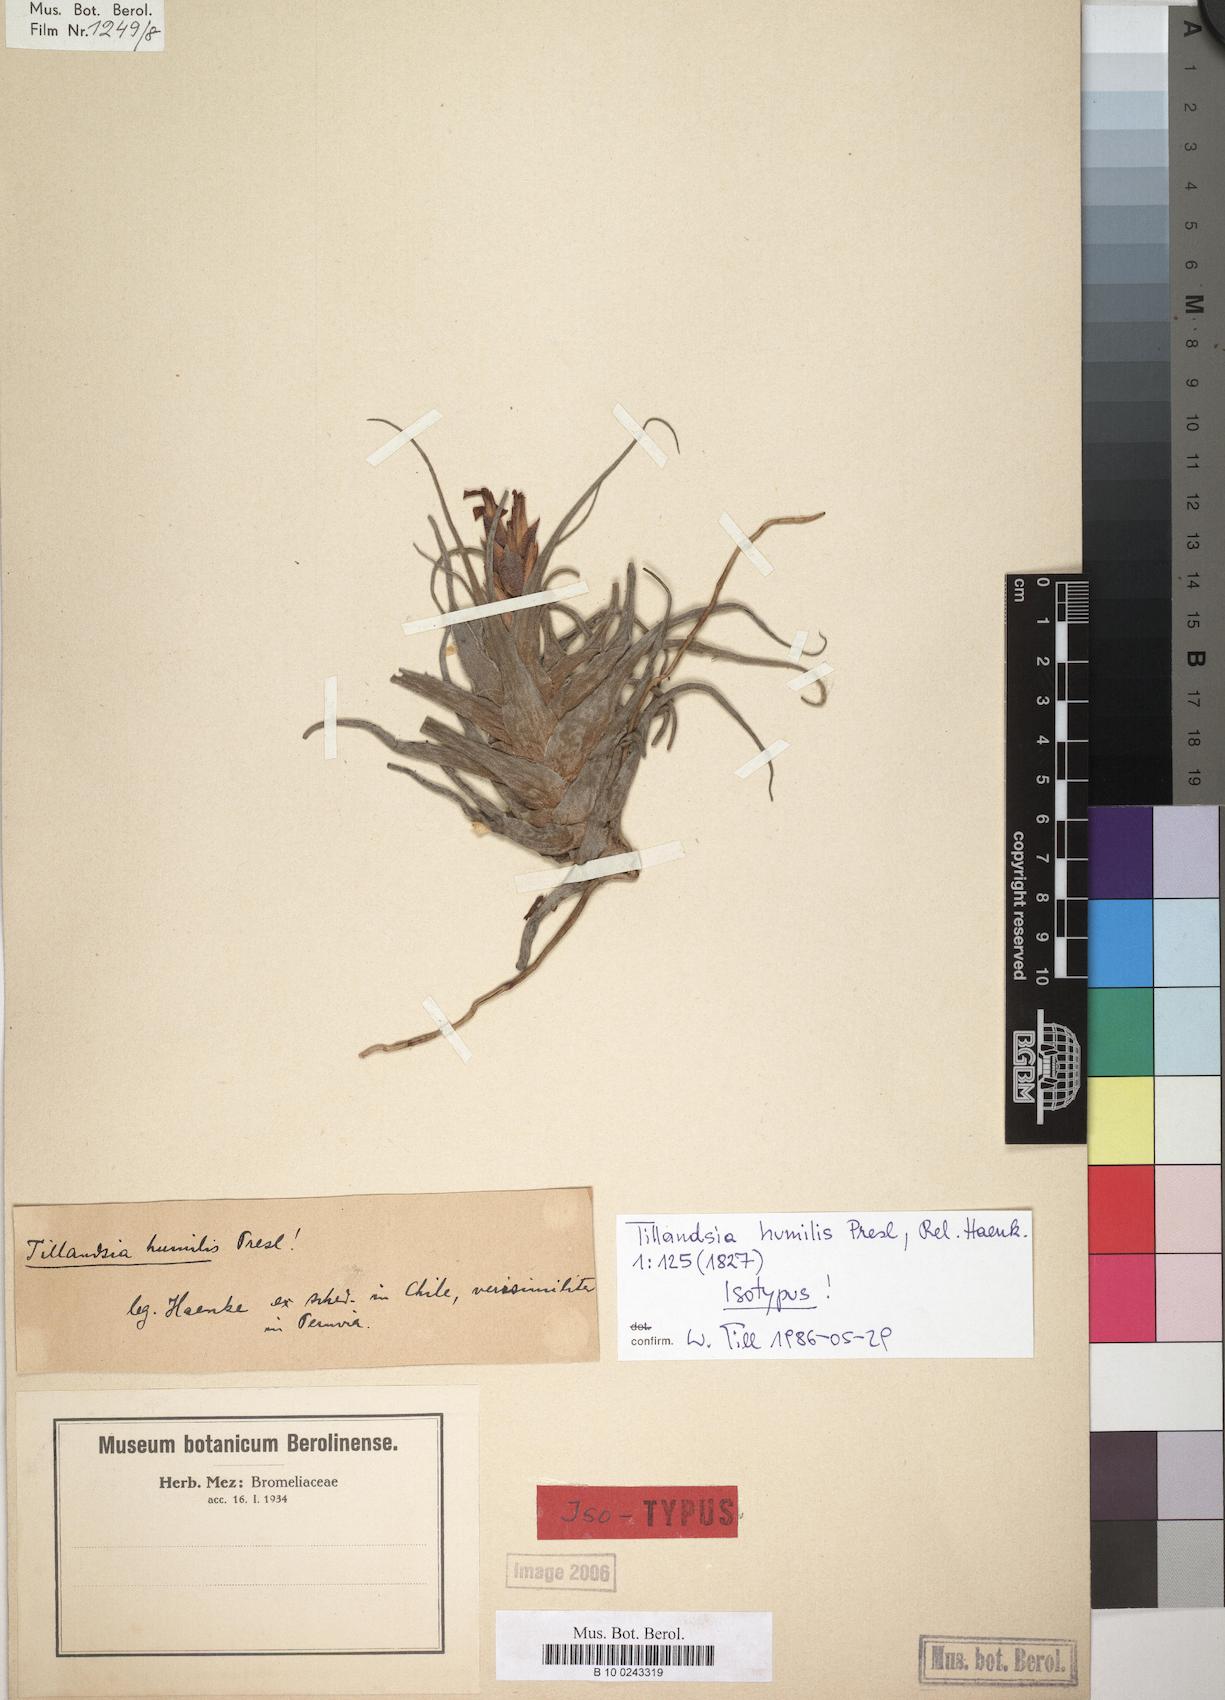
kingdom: Plantae
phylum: Tracheophyta
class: Liliopsida
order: Poales
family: Bromeliaceae
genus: Tillandsia
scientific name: Tillandsia humilis
